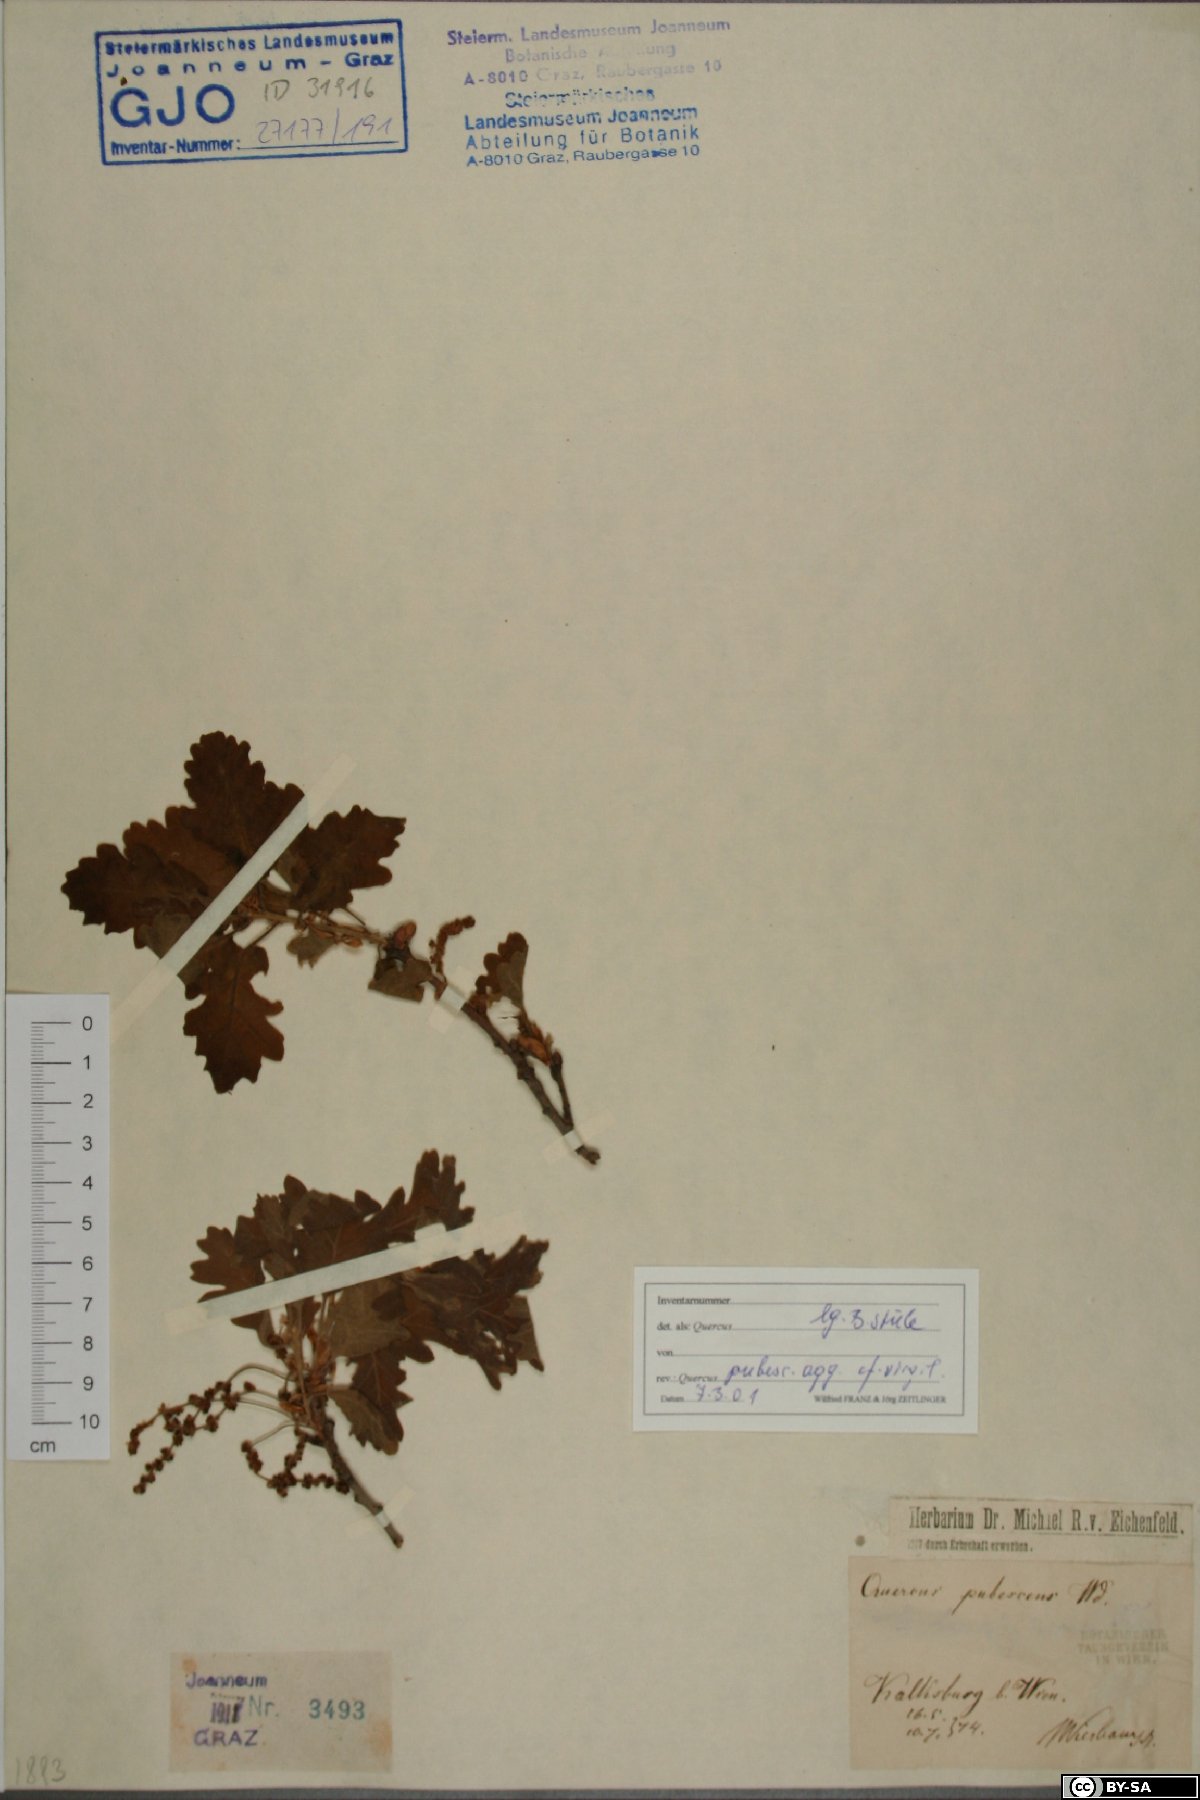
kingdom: Plantae
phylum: Tracheophyta
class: Magnoliopsida
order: Fagales
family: Fagaceae
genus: Quercus
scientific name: Quercus pubescens
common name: Downy oak
